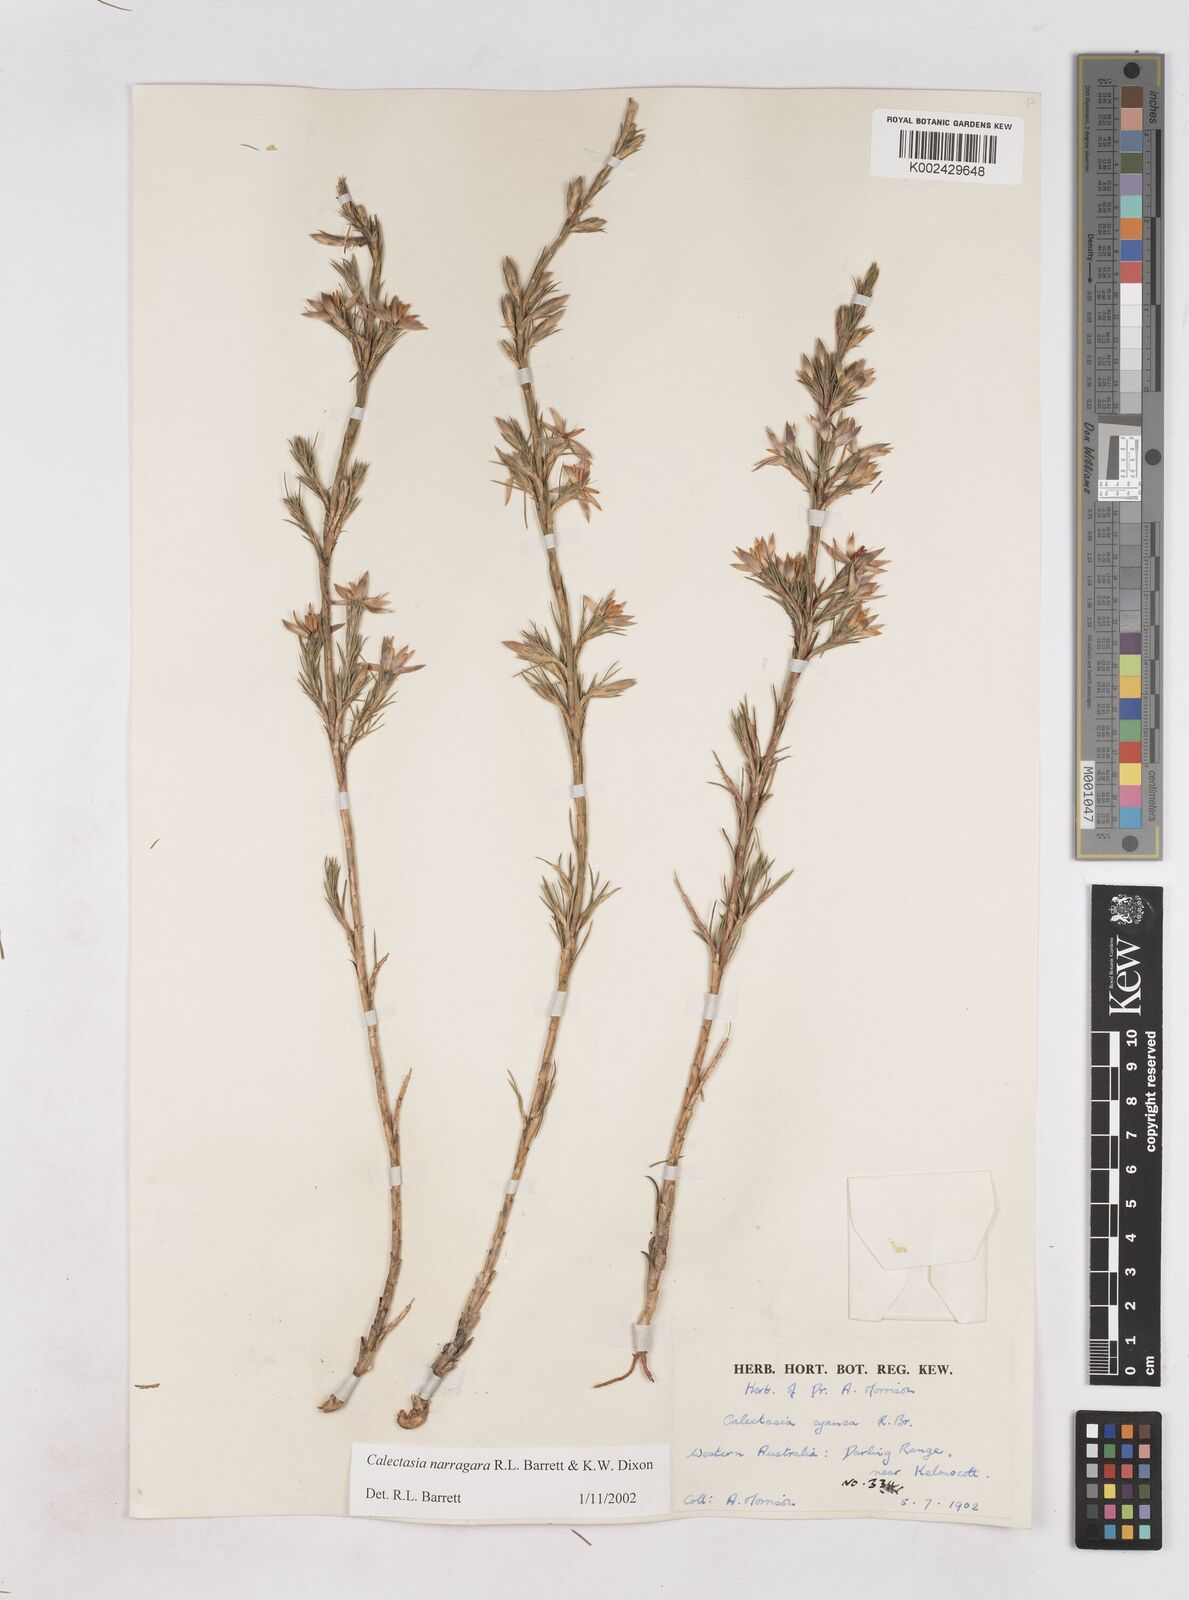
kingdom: Plantae
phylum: Tracheophyta
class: Liliopsida
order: Arecales
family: Dasypogonaceae
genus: Calectasia
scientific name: Calectasia narragara
